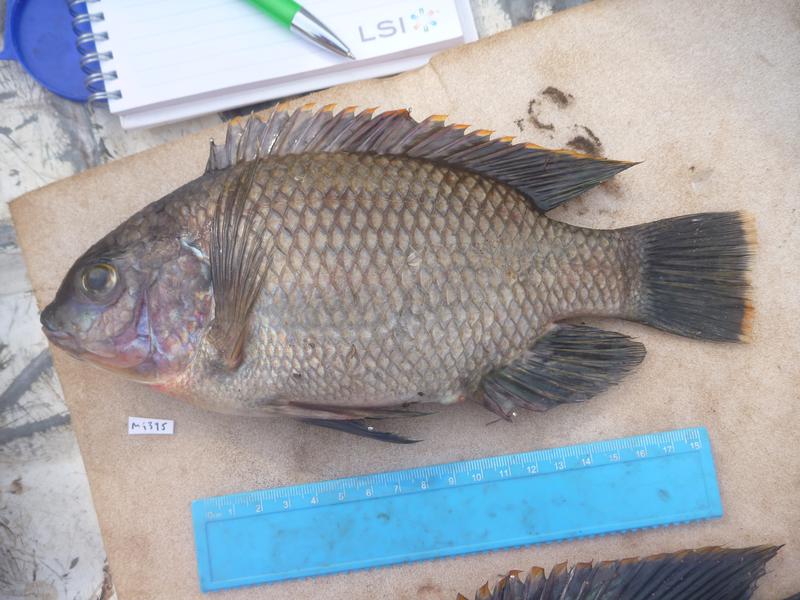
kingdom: Animalia
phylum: Chordata
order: Perciformes
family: Cichlidae
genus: Oreochromis
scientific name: Oreochromis variabilis
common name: Victoria tilapia
